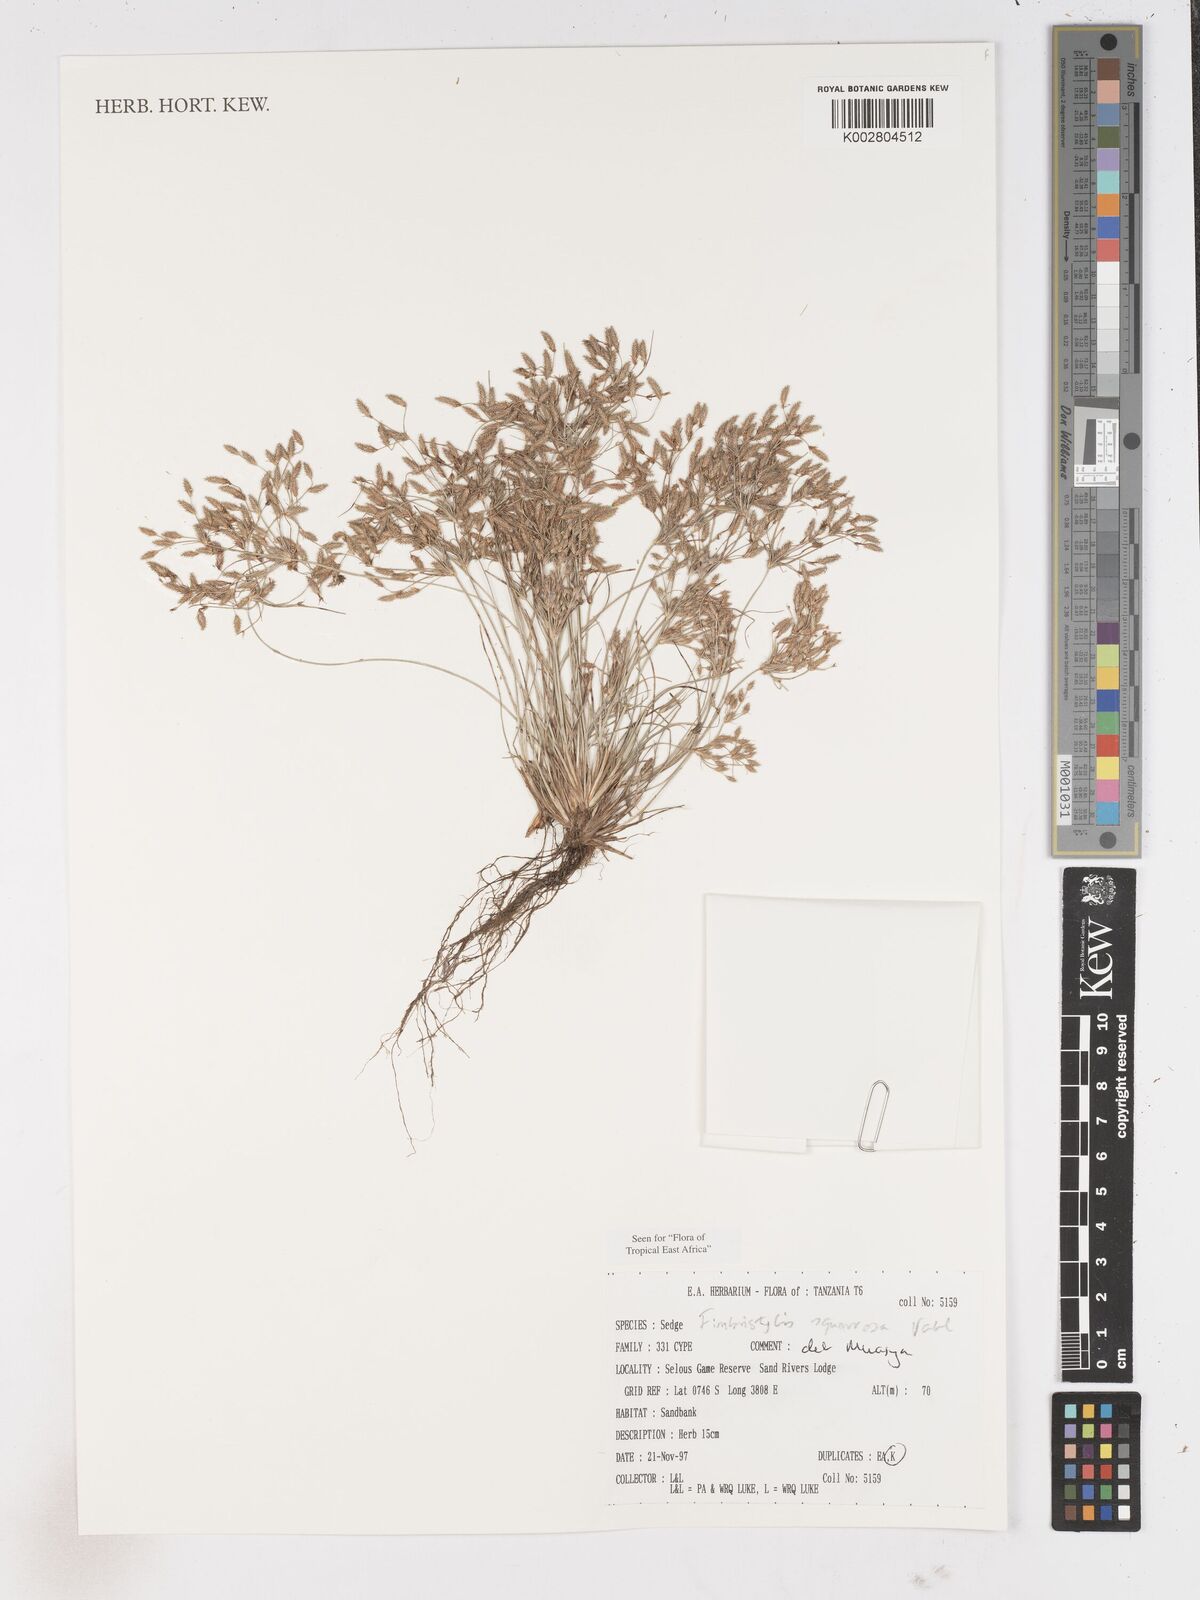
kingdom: Plantae
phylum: Tracheophyta
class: Liliopsida
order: Poales
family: Cyperaceae
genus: Fimbristylis
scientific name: Fimbristylis squarrosa
